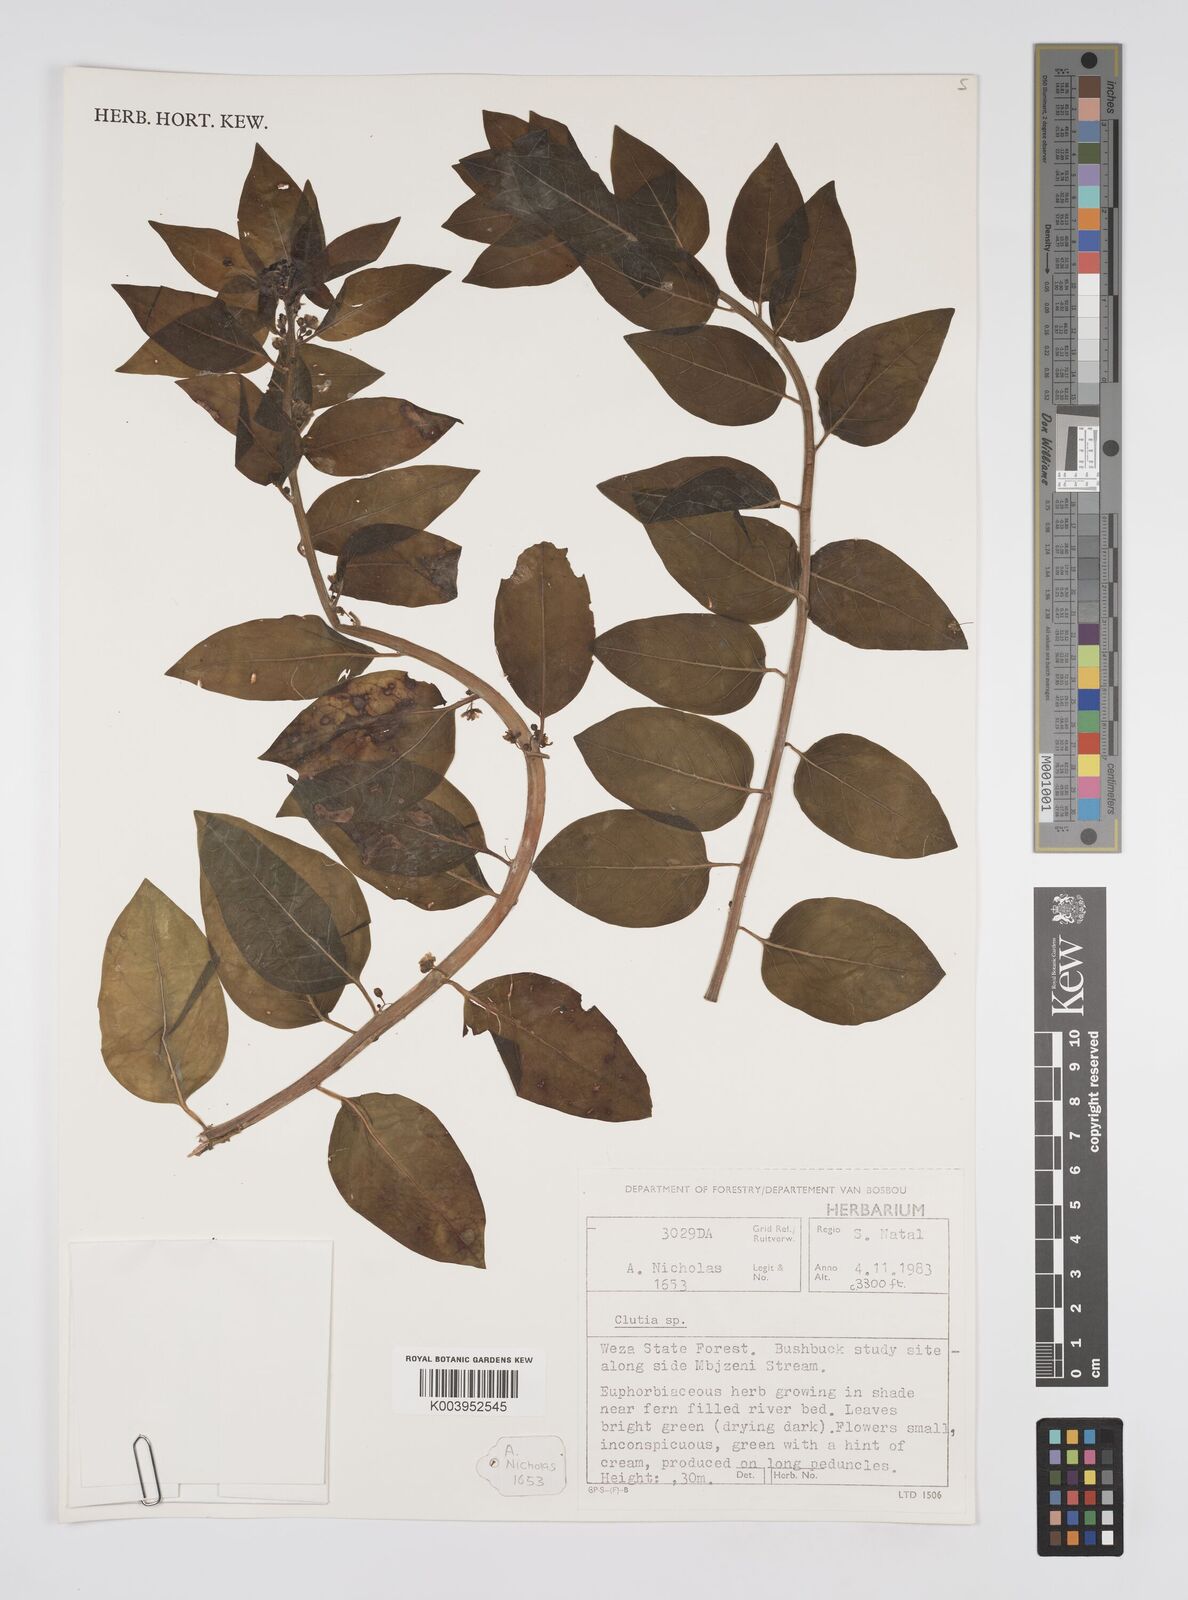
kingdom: Plantae
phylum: Tracheophyta
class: Magnoliopsida
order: Malpighiales
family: Peraceae
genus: Clutia
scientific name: Clutia
